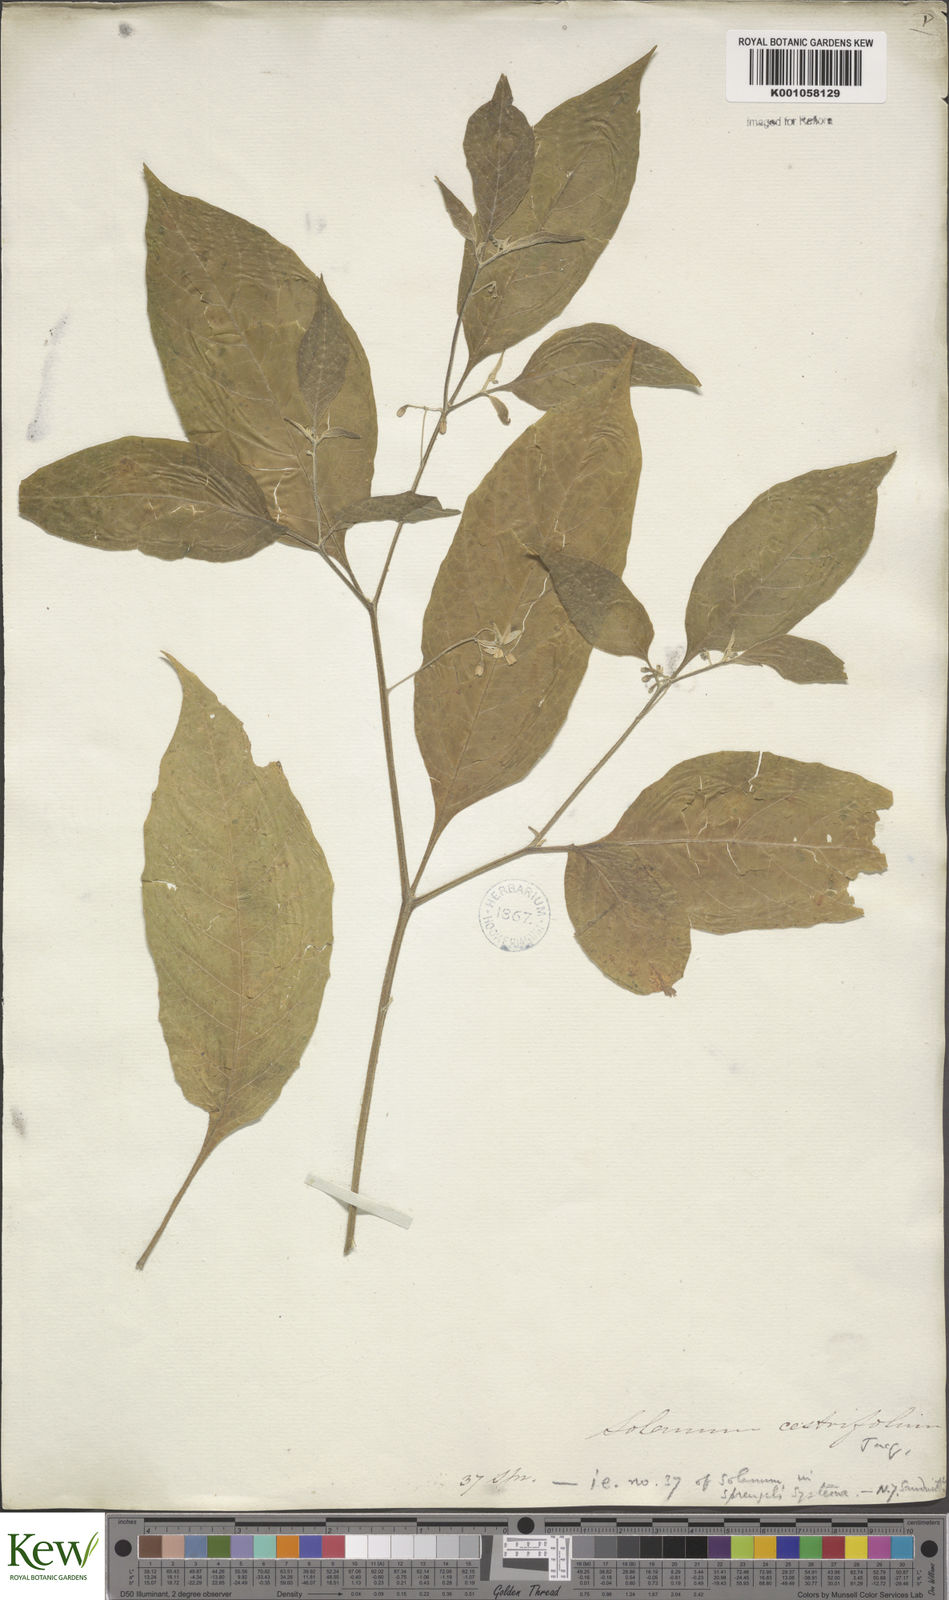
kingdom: Plantae
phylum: Tracheophyta
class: Magnoliopsida
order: Solanales
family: Solanaceae
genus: Solanum
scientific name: Solanum
